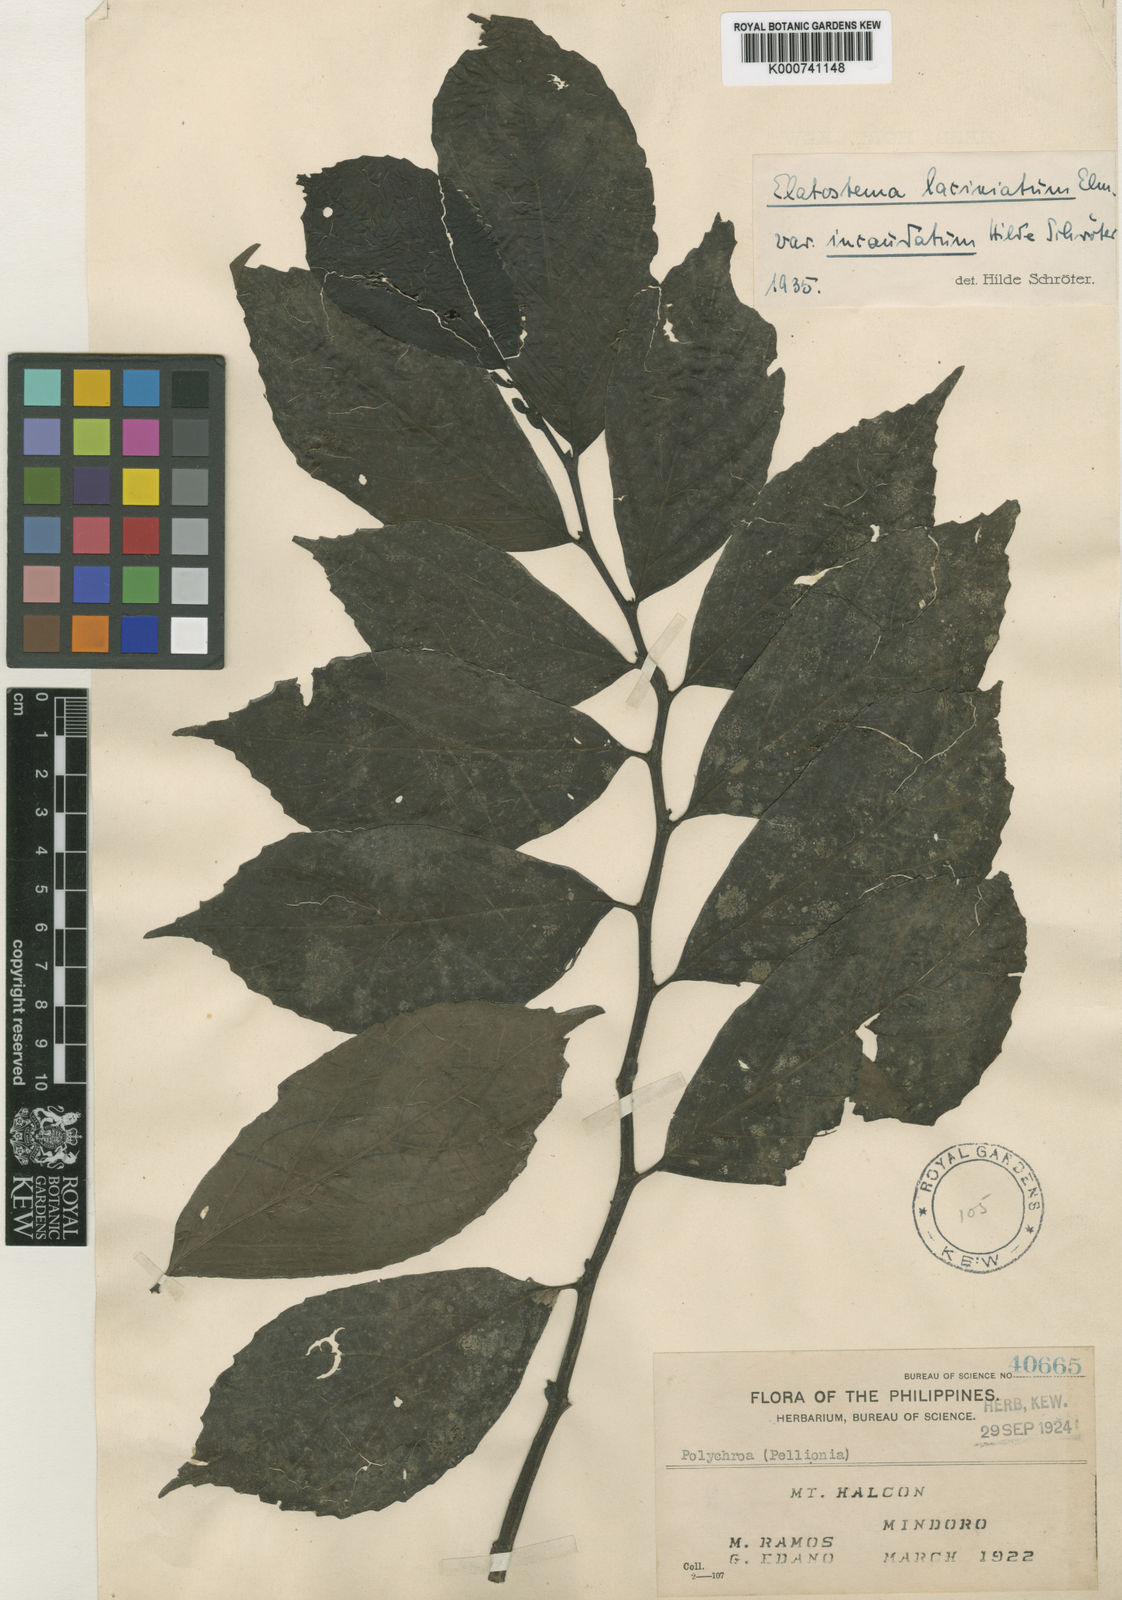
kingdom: Plantae
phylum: Tracheophyta
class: Magnoliopsida
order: Rosales
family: Urticaceae
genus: Elatostema
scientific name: Elatostema sinuatum
